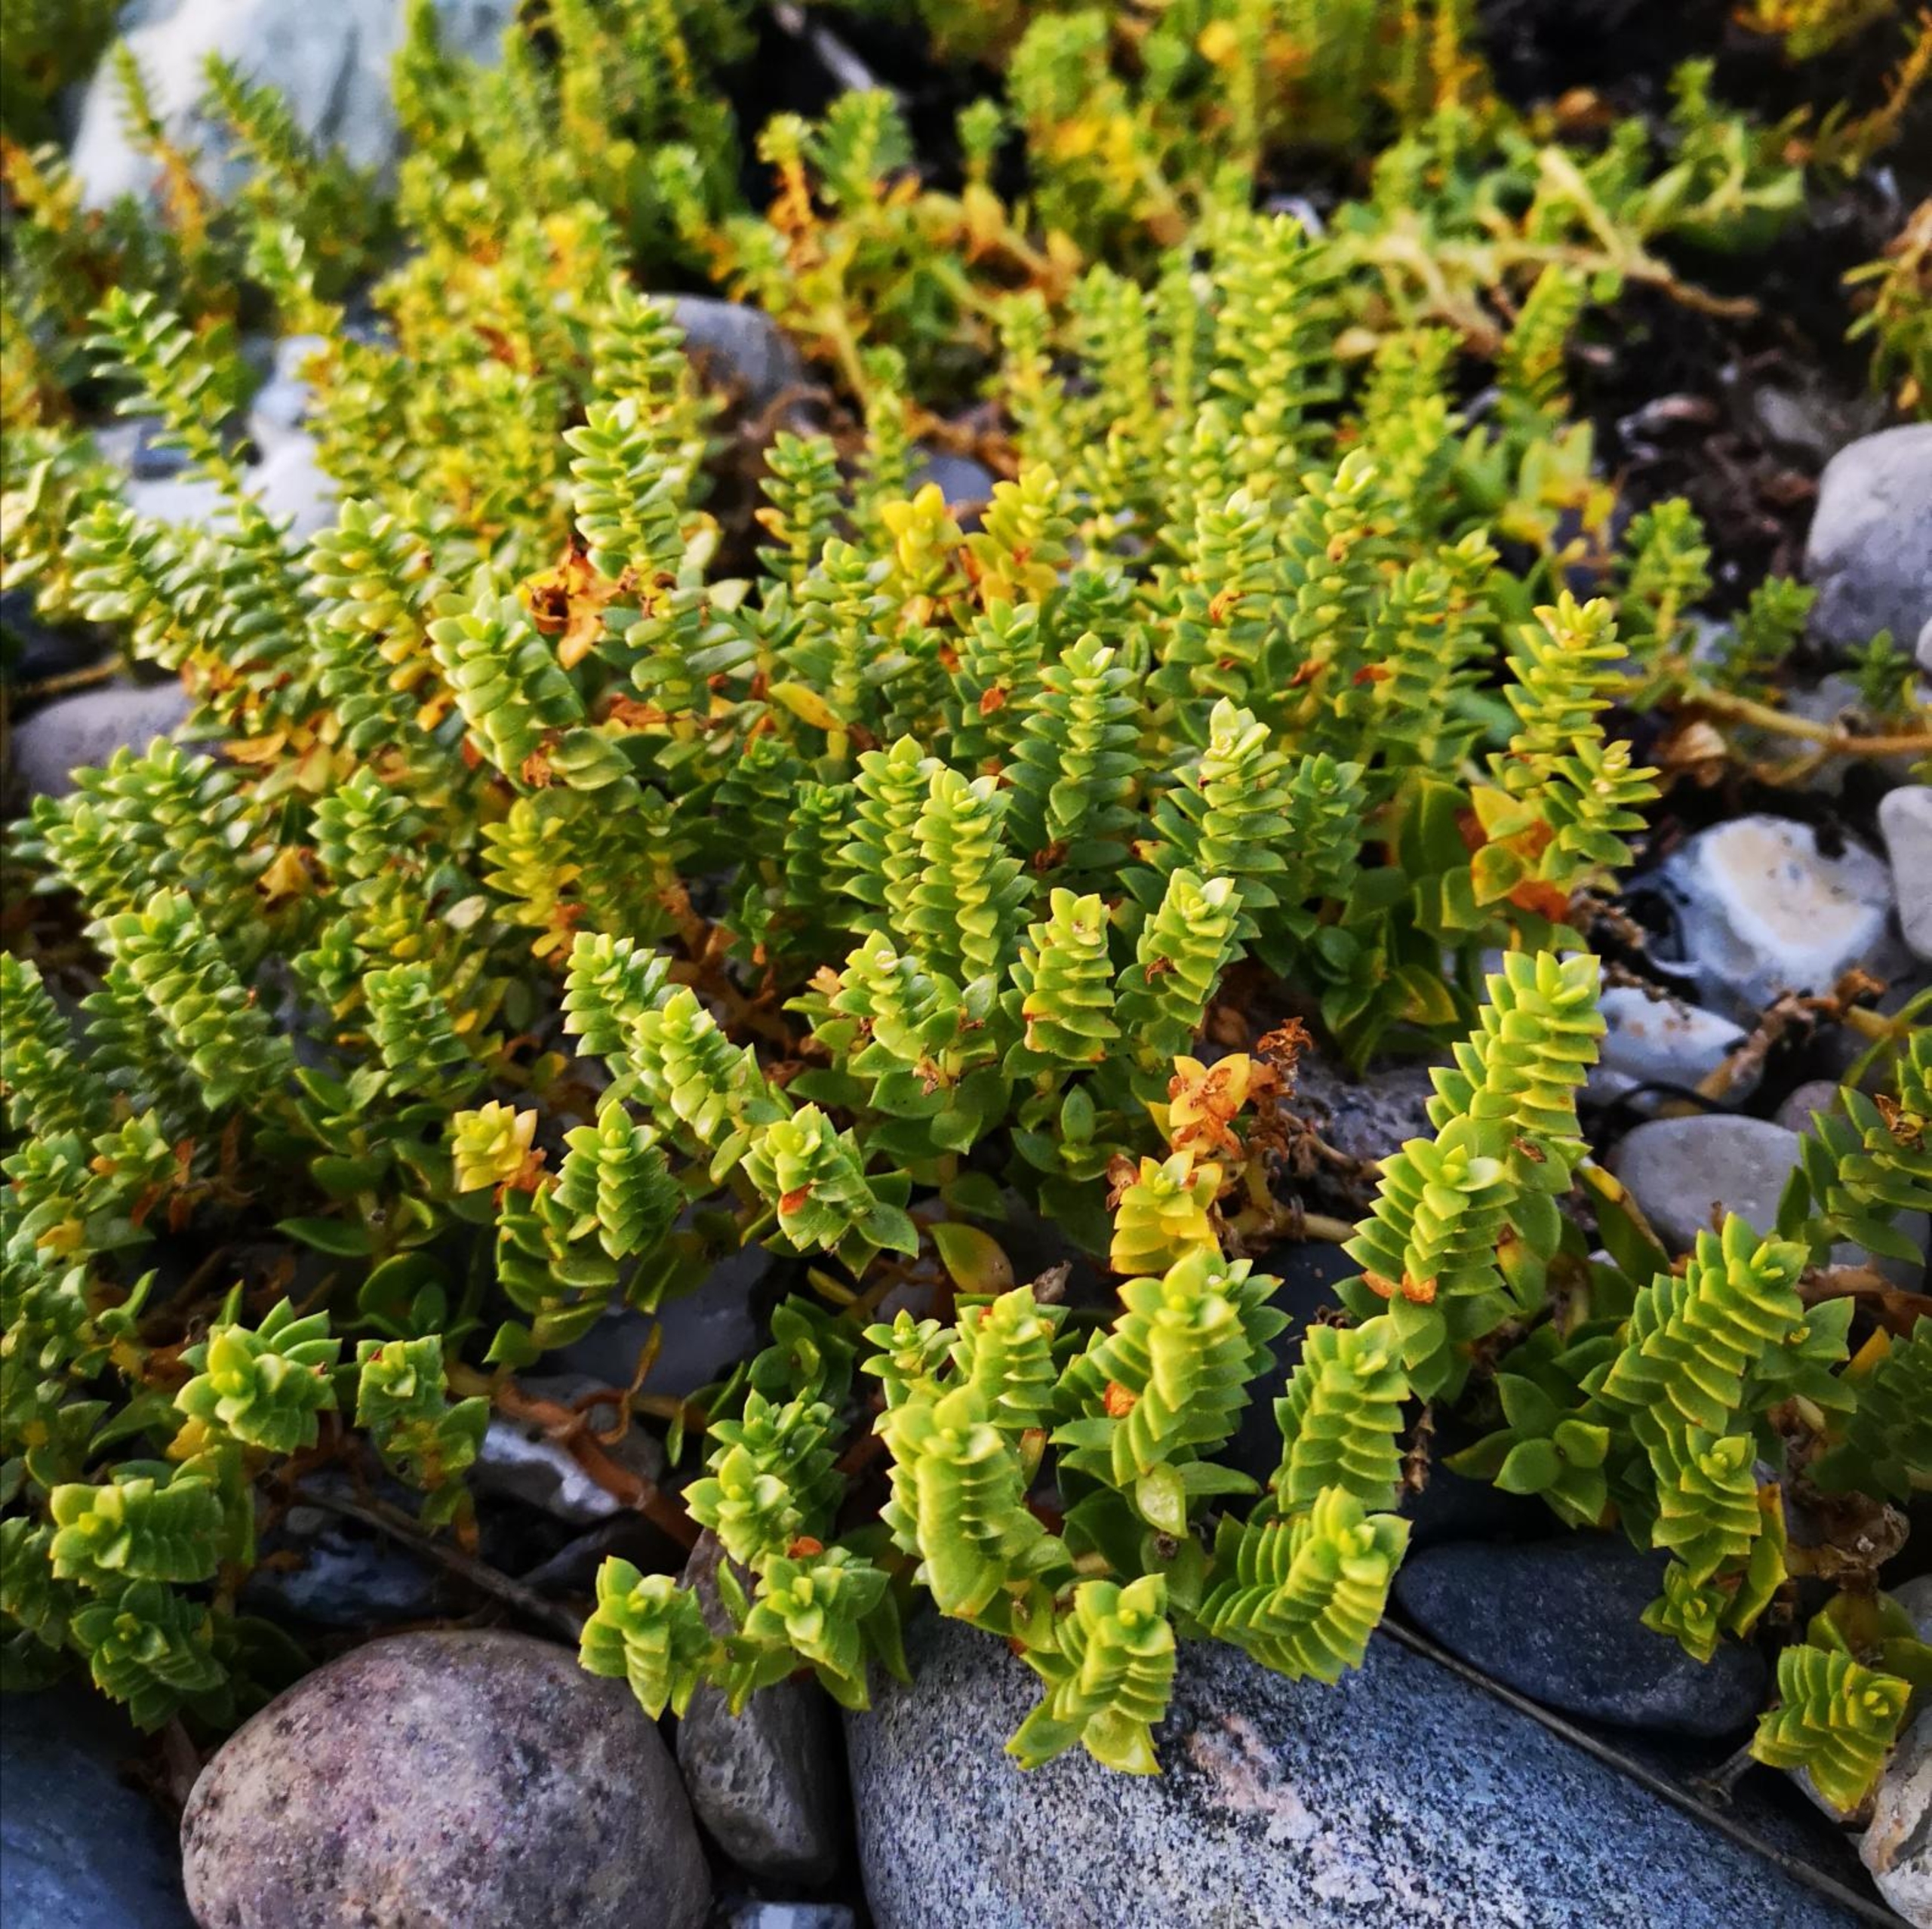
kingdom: Plantae
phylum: Tracheophyta
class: Magnoliopsida
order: Caryophyllales
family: Caryophyllaceae
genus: Honckenya
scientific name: Honckenya peploides
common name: Strandarve
